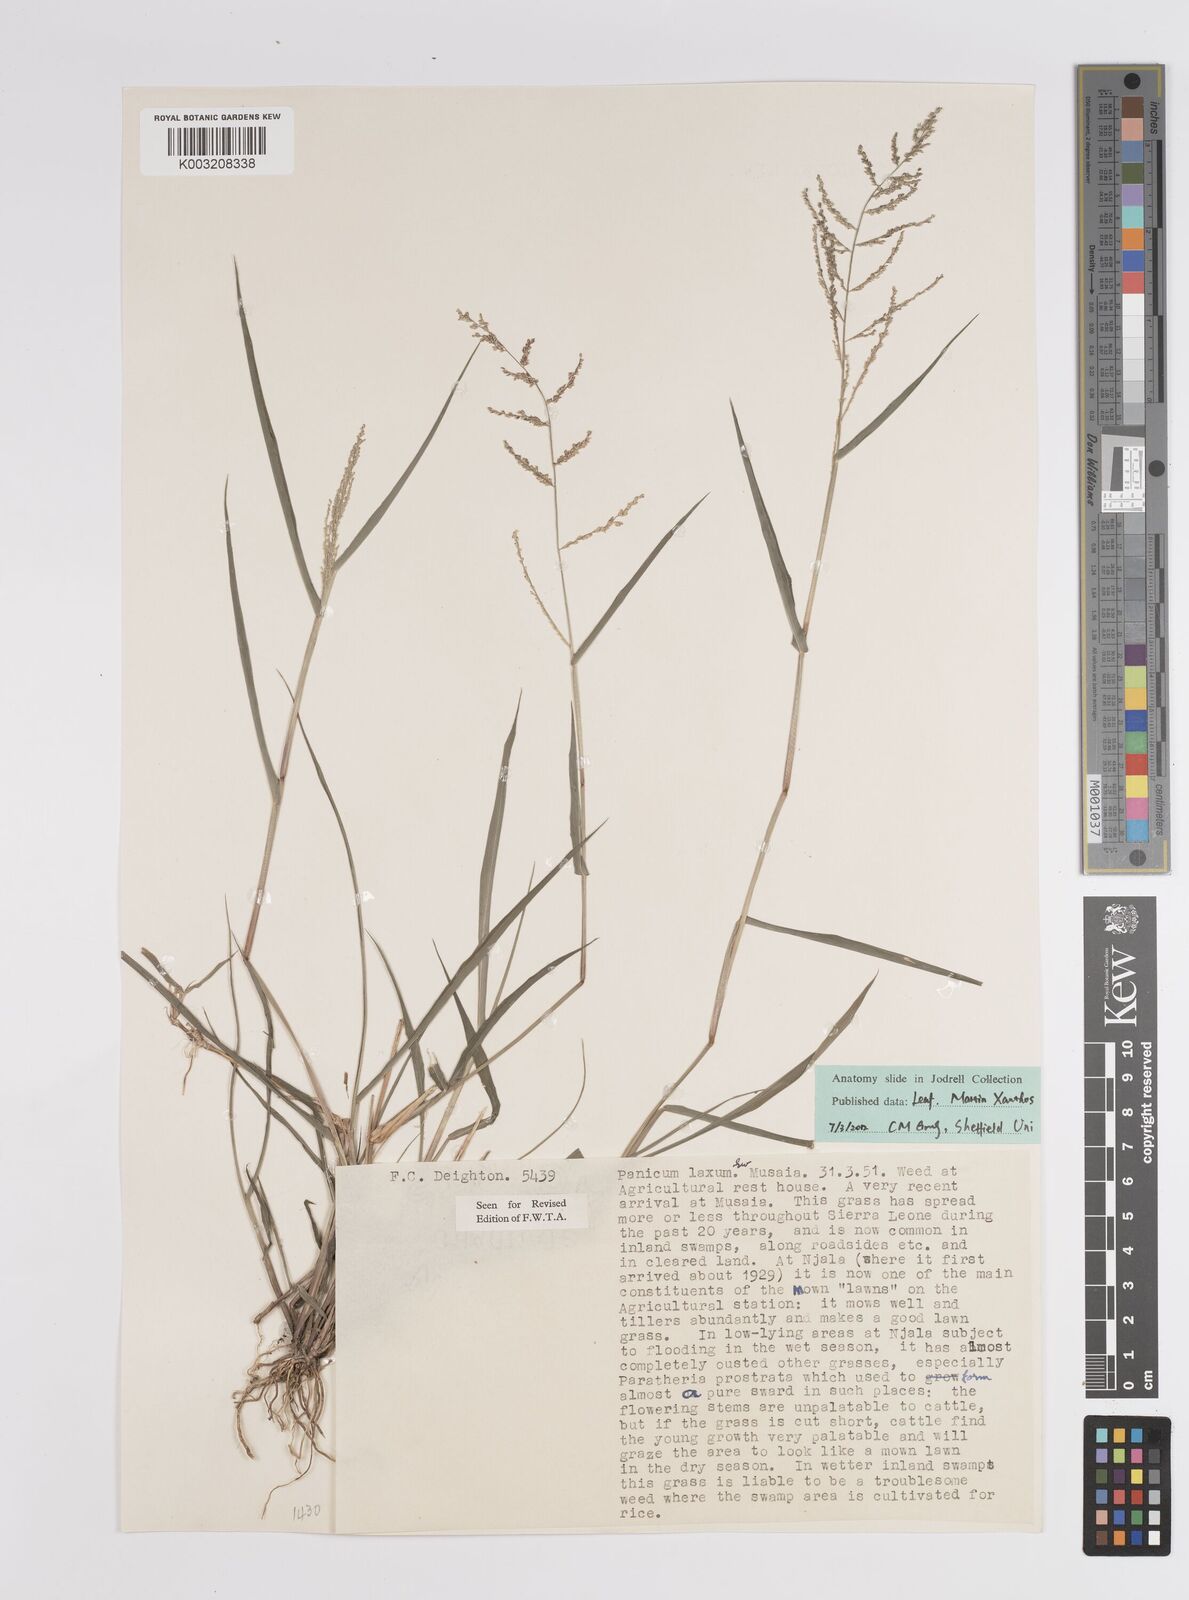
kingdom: Plantae
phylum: Tracheophyta
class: Liliopsida
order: Poales
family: Poaceae
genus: Steinchisma
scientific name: Steinchisma laxum
